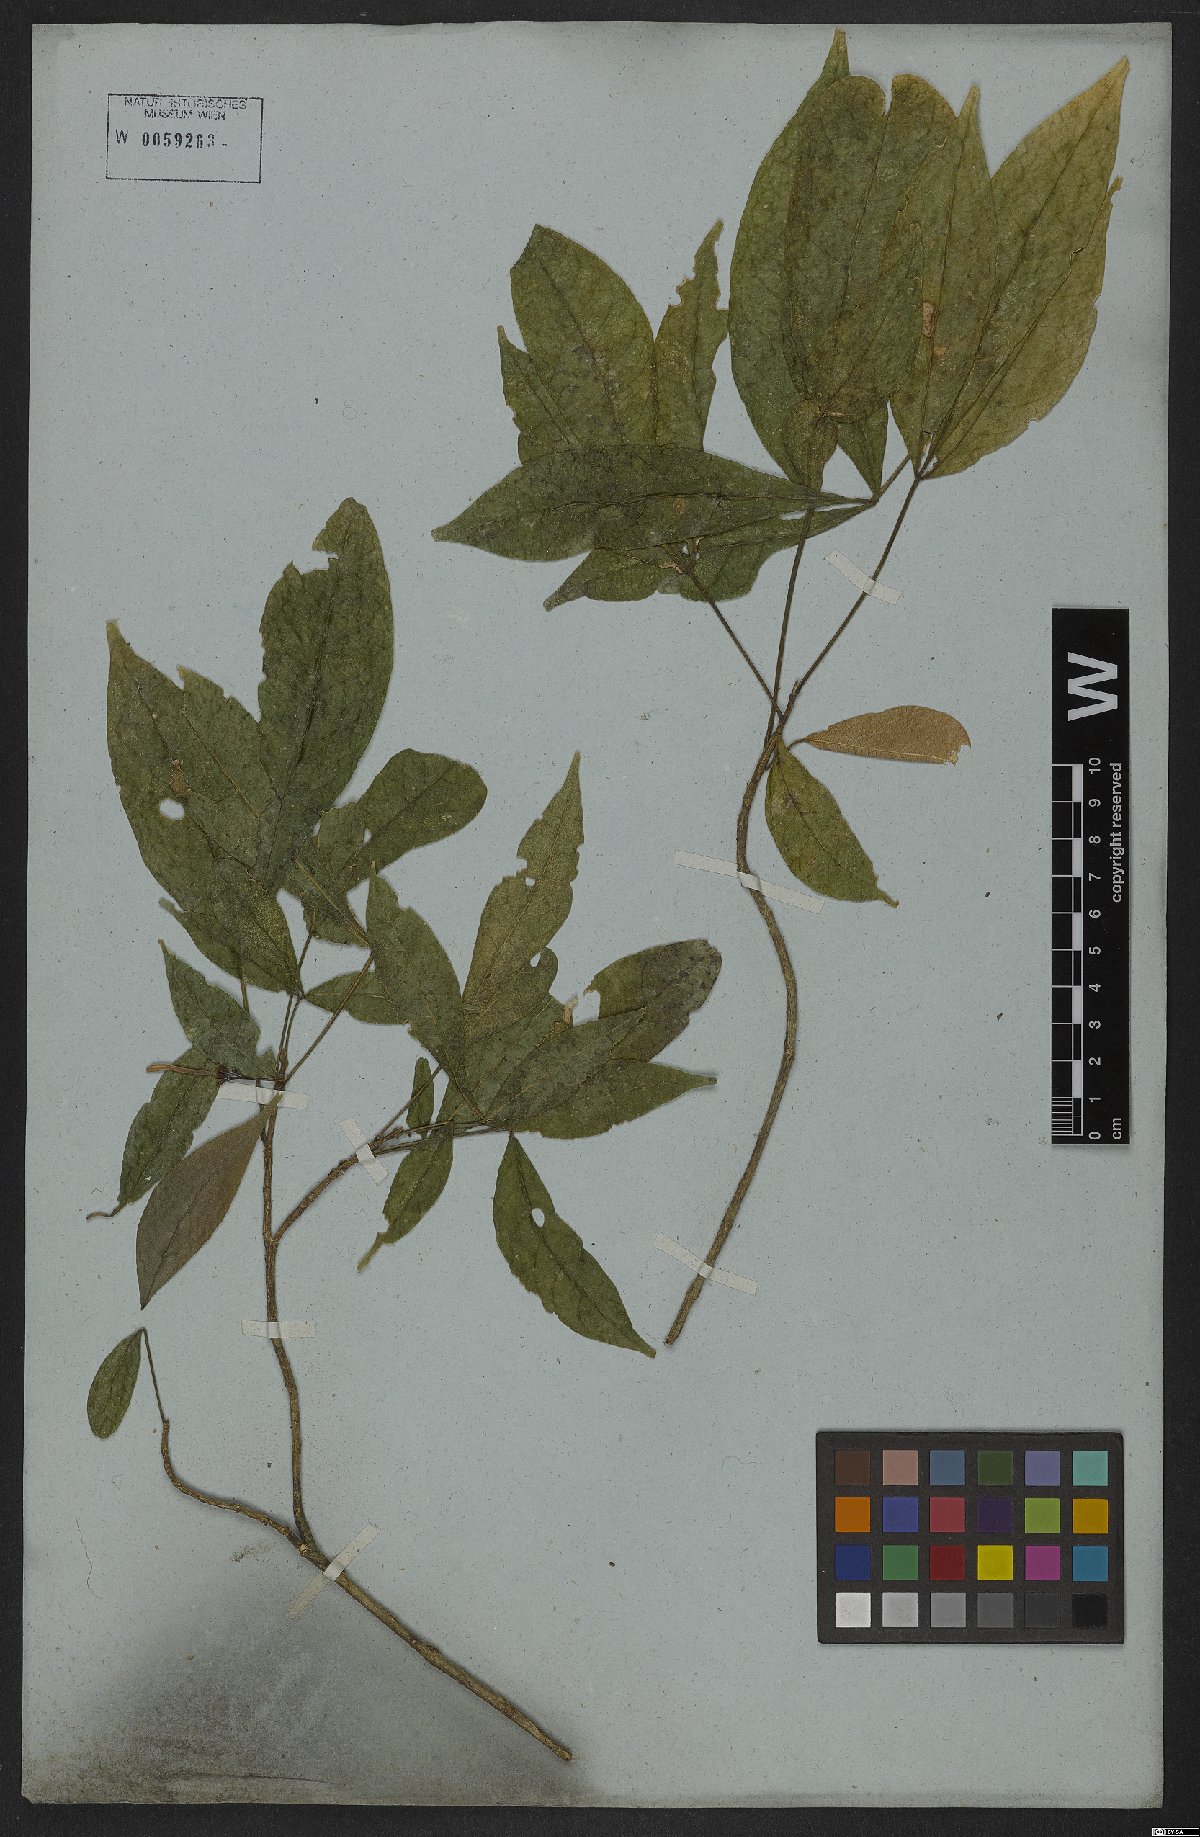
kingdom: Plantae
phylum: Tracheophyta
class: Magnoliopsida
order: Sapindales
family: Rutaceae
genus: Galipea
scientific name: Galipea jasminiflora
